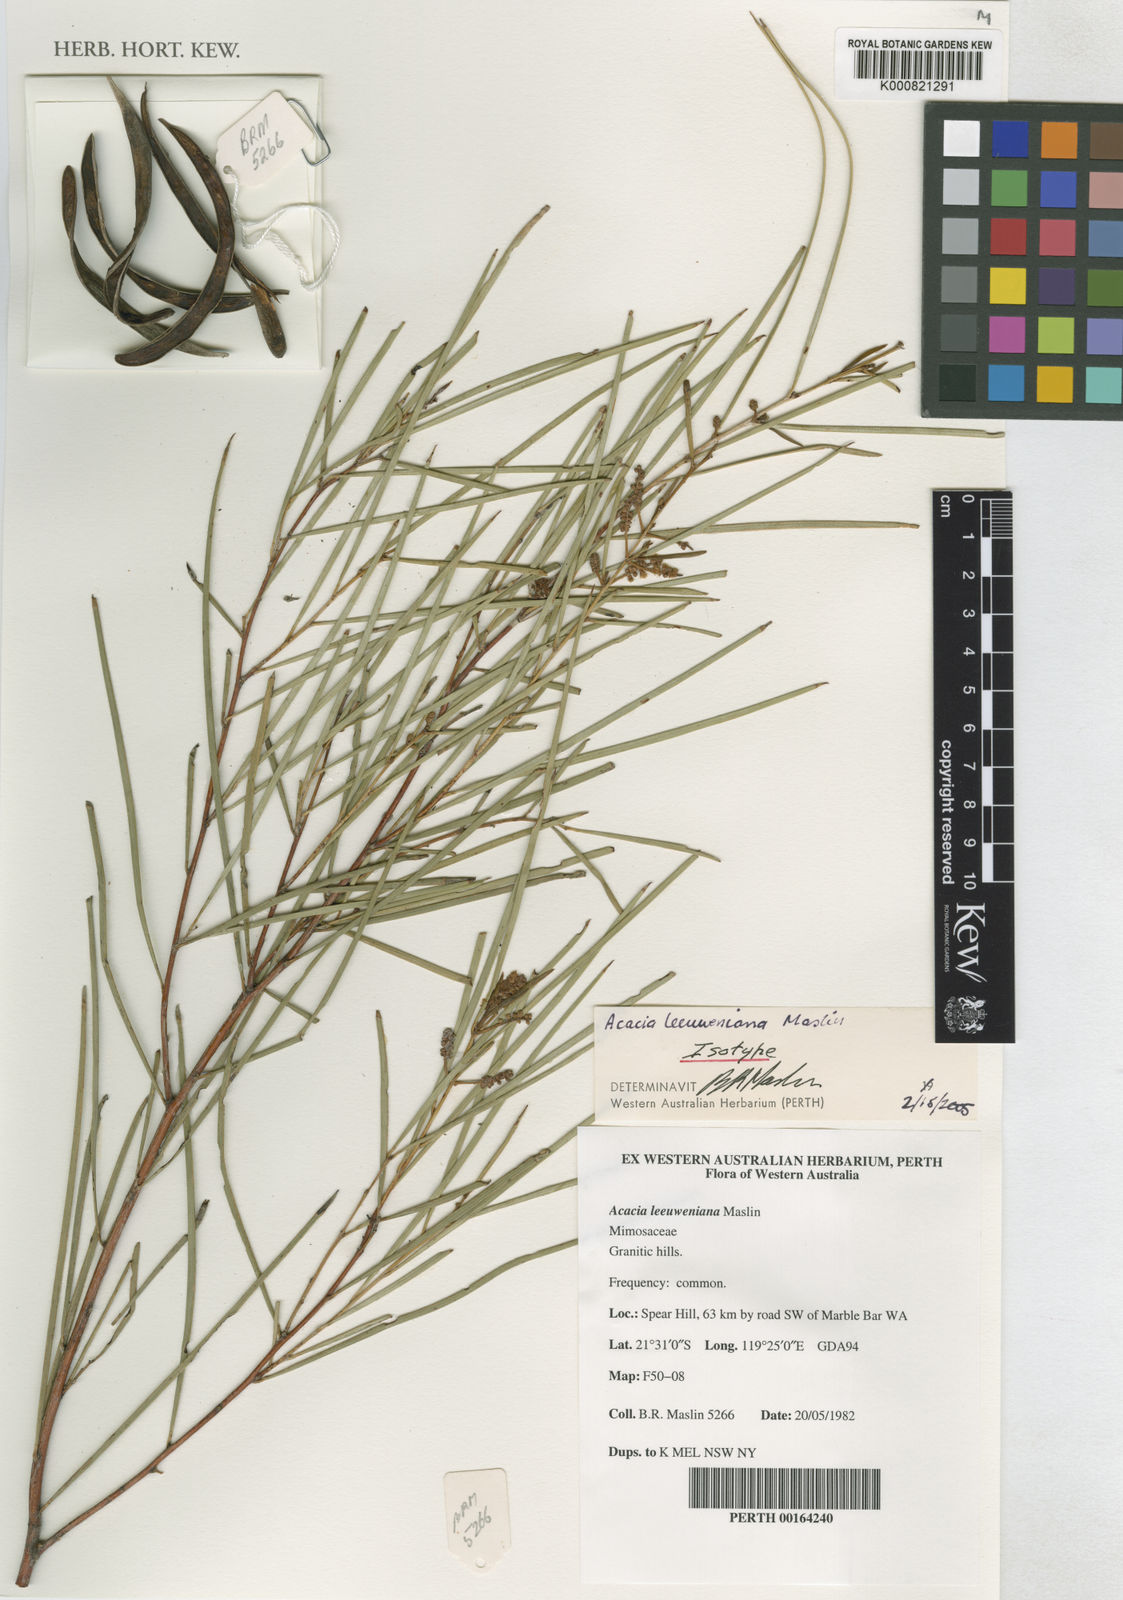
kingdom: Plantae
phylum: Tracheophyta
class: Magnoliopsida
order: Fabales
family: Fabaceae
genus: Acacia
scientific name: Acacia leeuweniana
